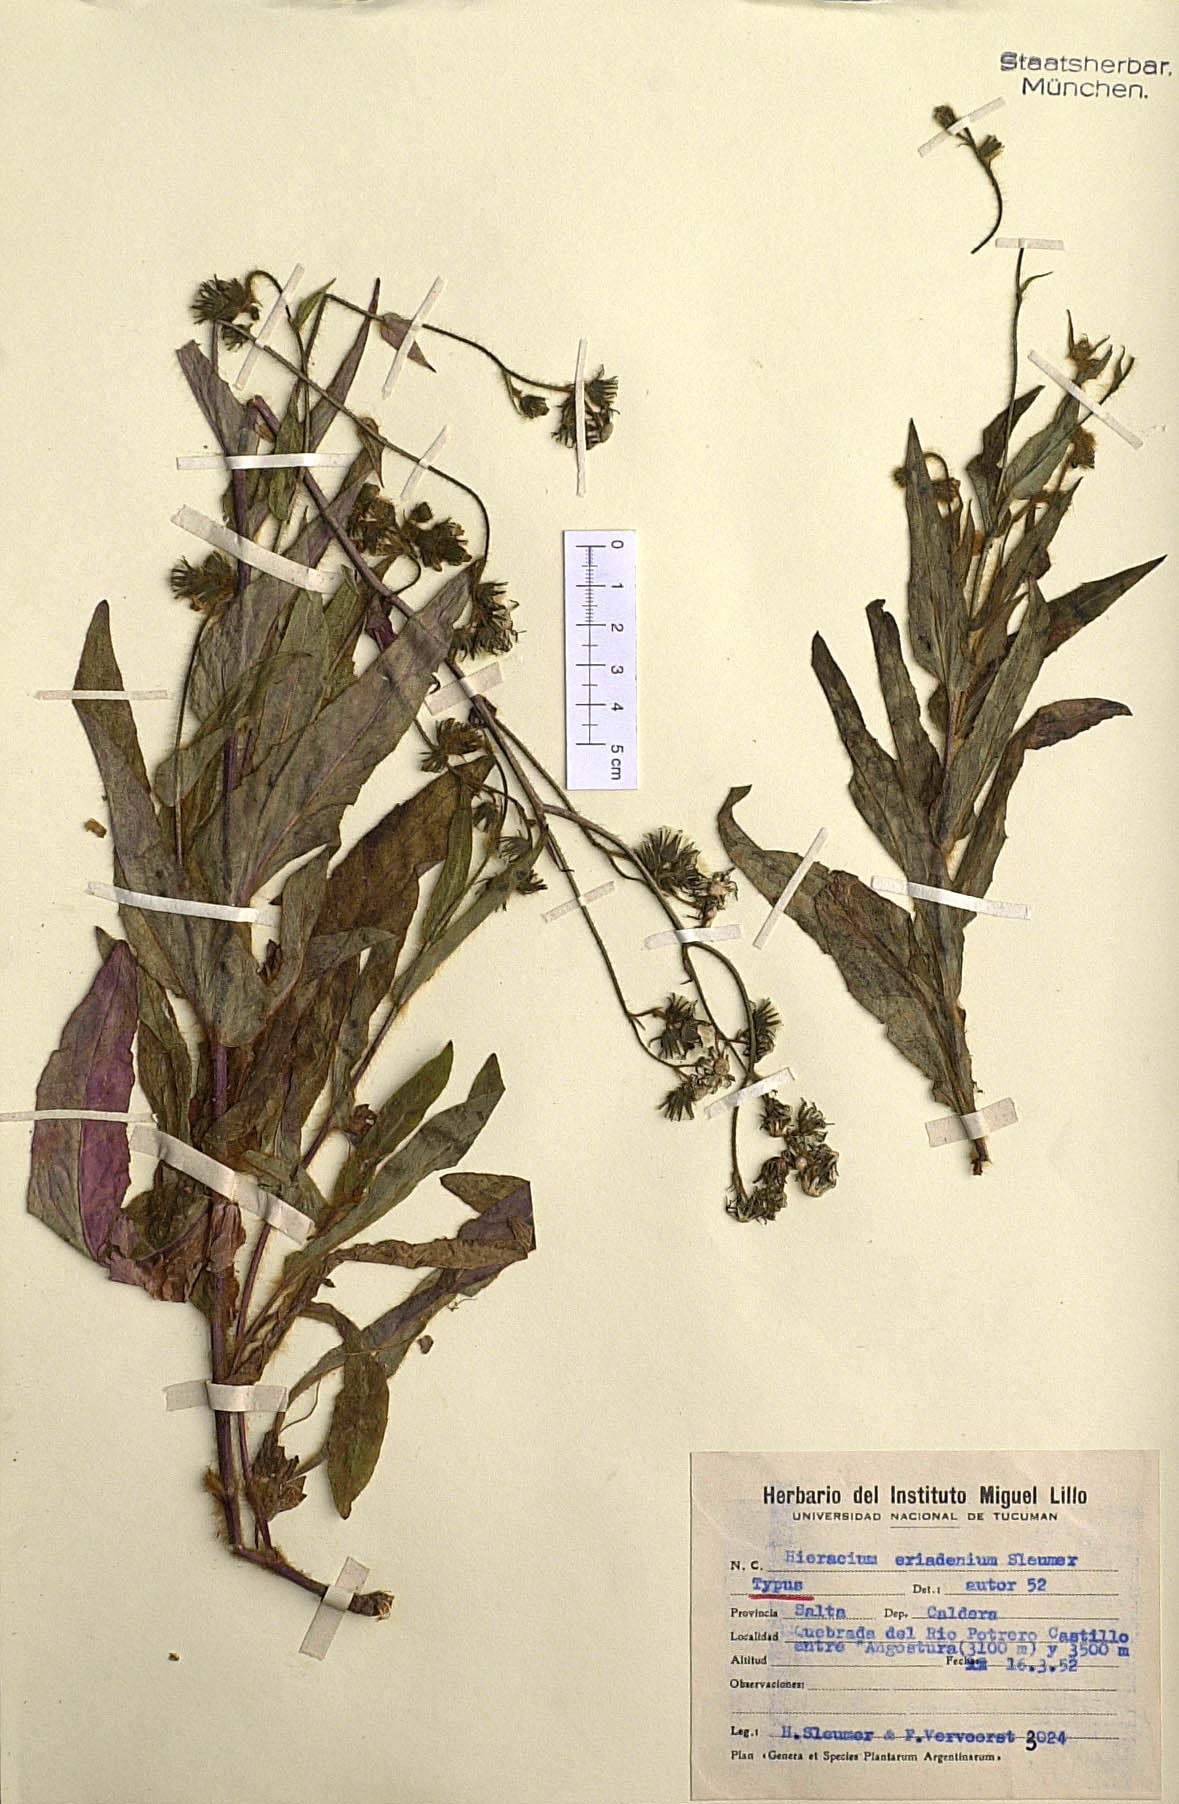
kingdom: Plantae
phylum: Tracheophyta
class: Magnoliopsida
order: Asterales
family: Asteraceae
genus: Hieracium
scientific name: Hieracium eriadenium
